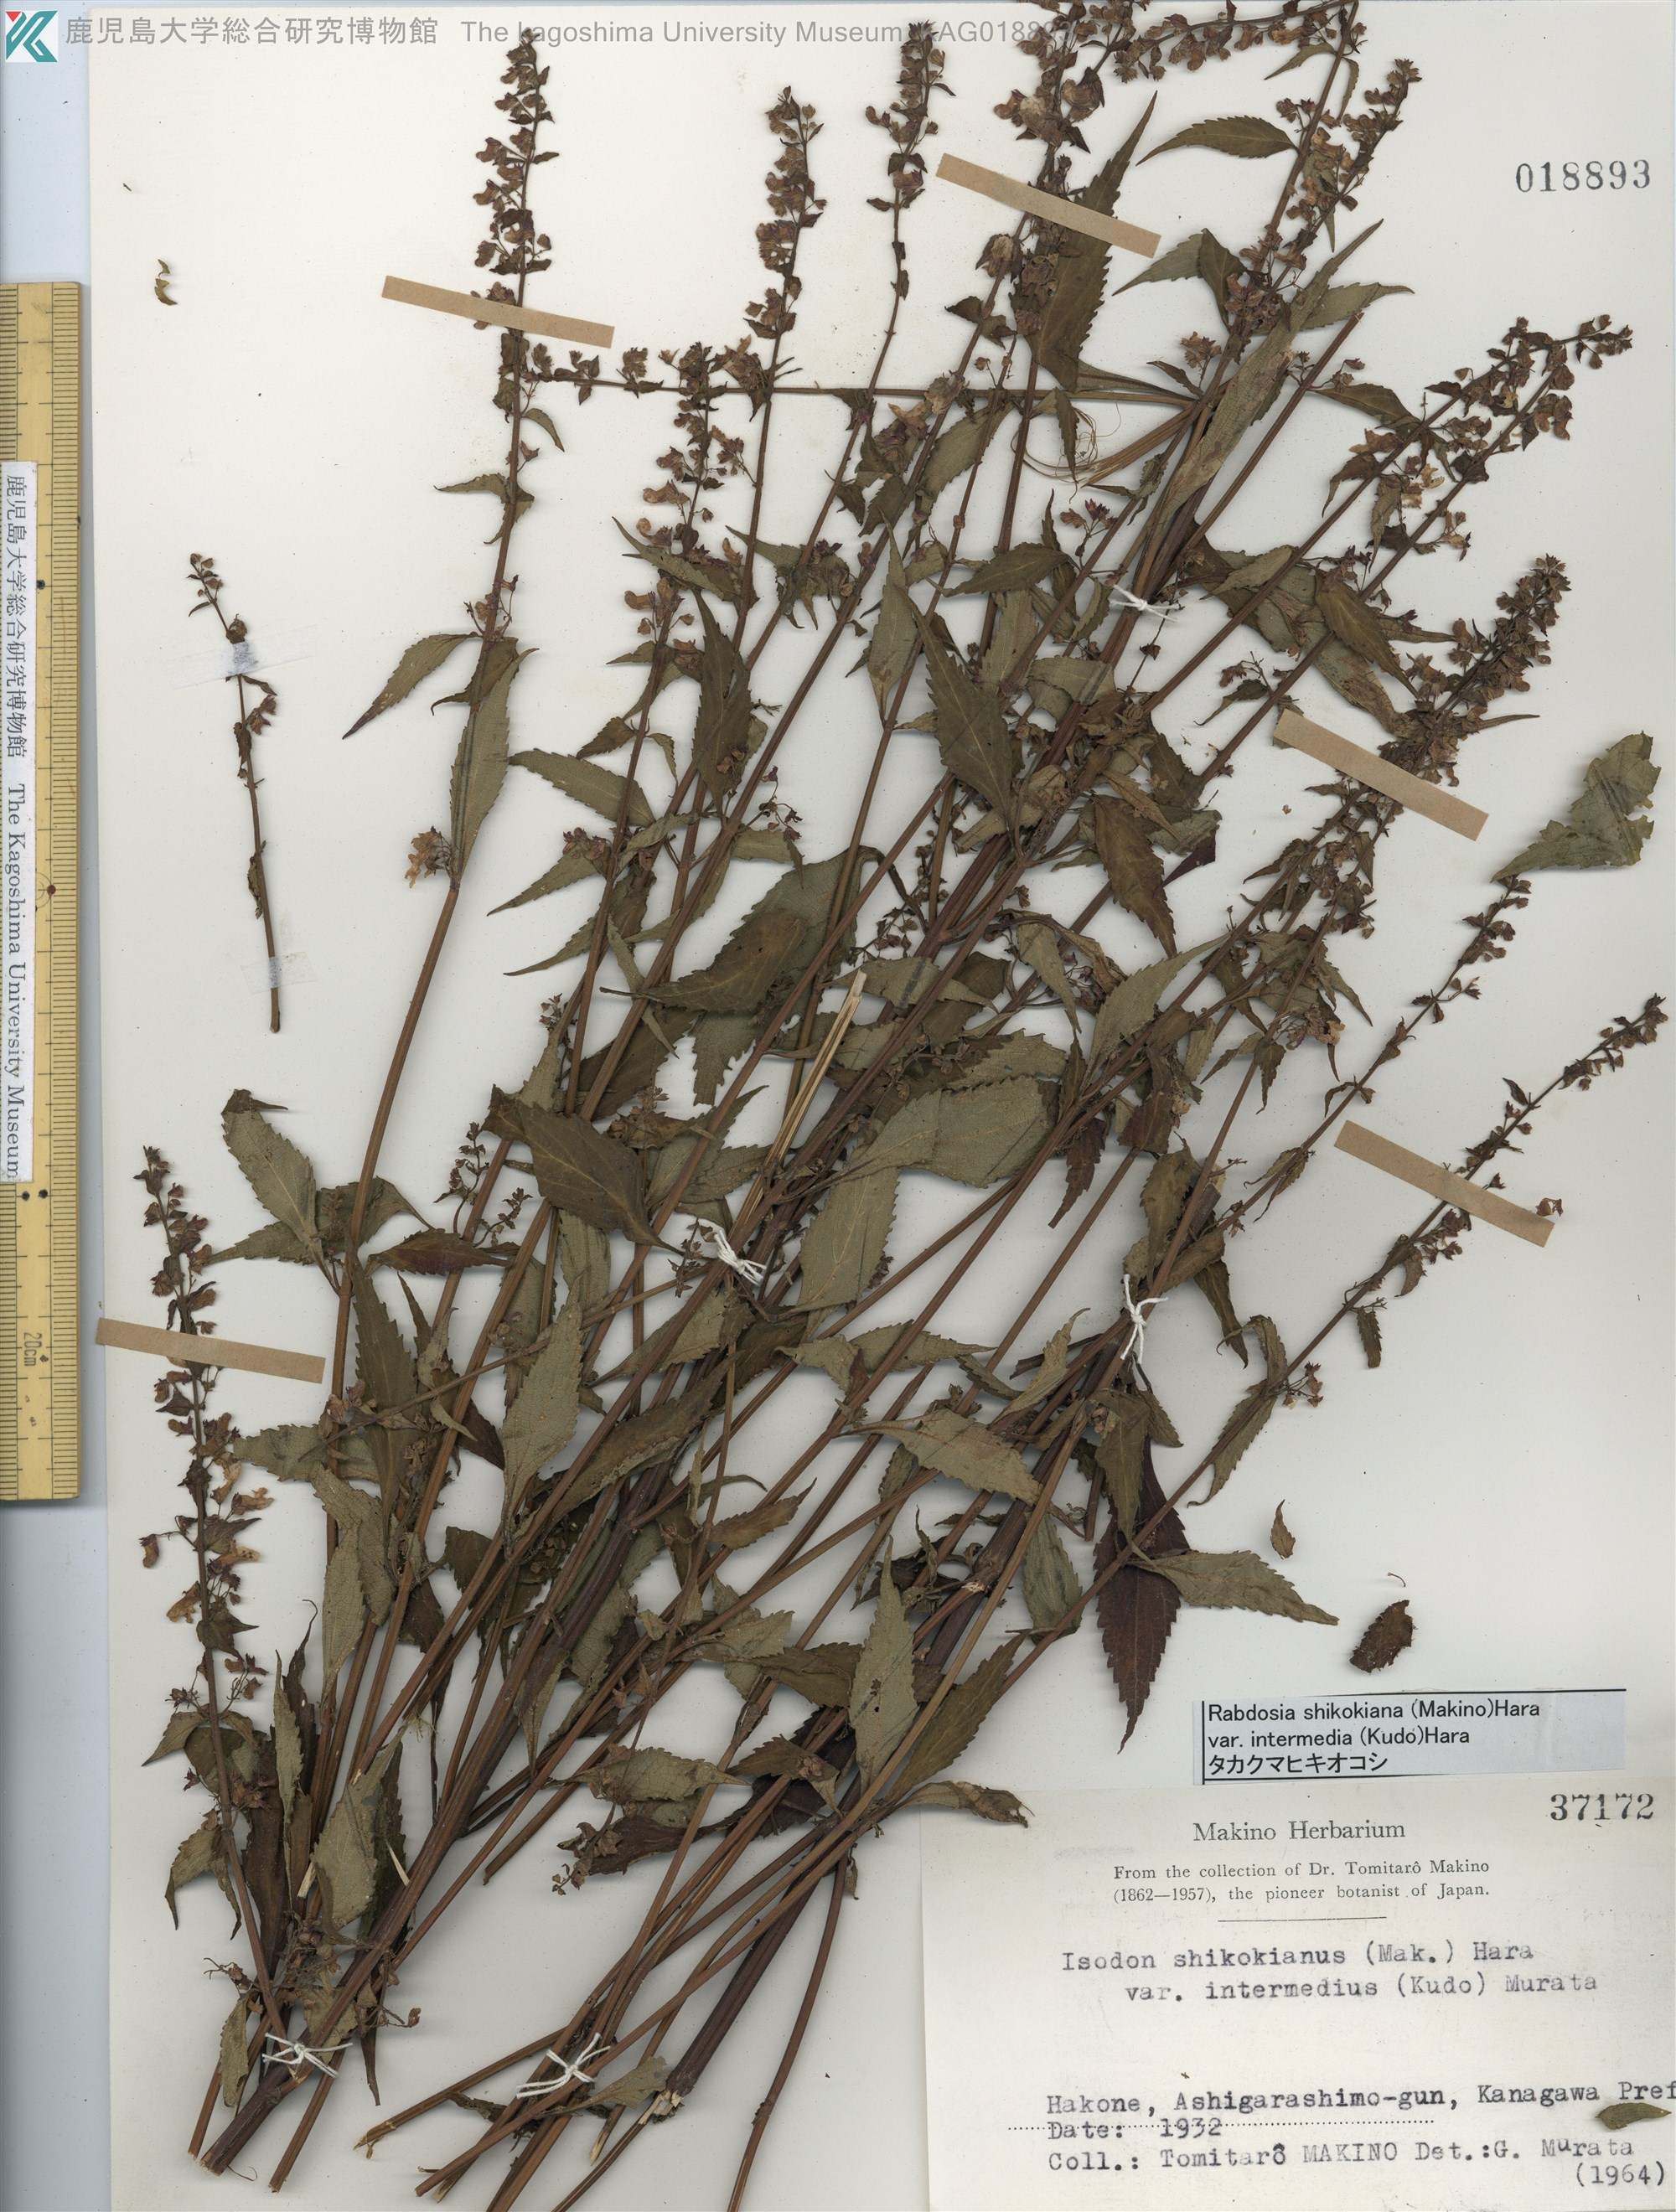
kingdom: Plantae
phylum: Tracheophyta
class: Magnoliopsida
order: Lamiales
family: Lamiaceae
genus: Isodon
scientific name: Isodon shikokianus
